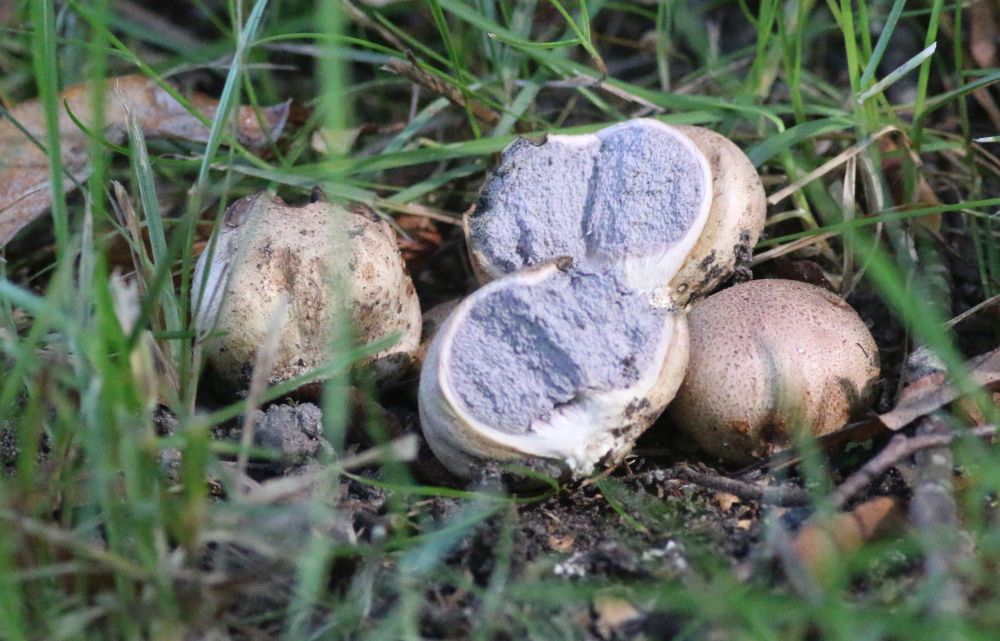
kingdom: Fungi
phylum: Basidiomycota
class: Agaricomycetes
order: Boletales
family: Sclerodermataceae
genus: Scleroderma
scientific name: Scleroderma
